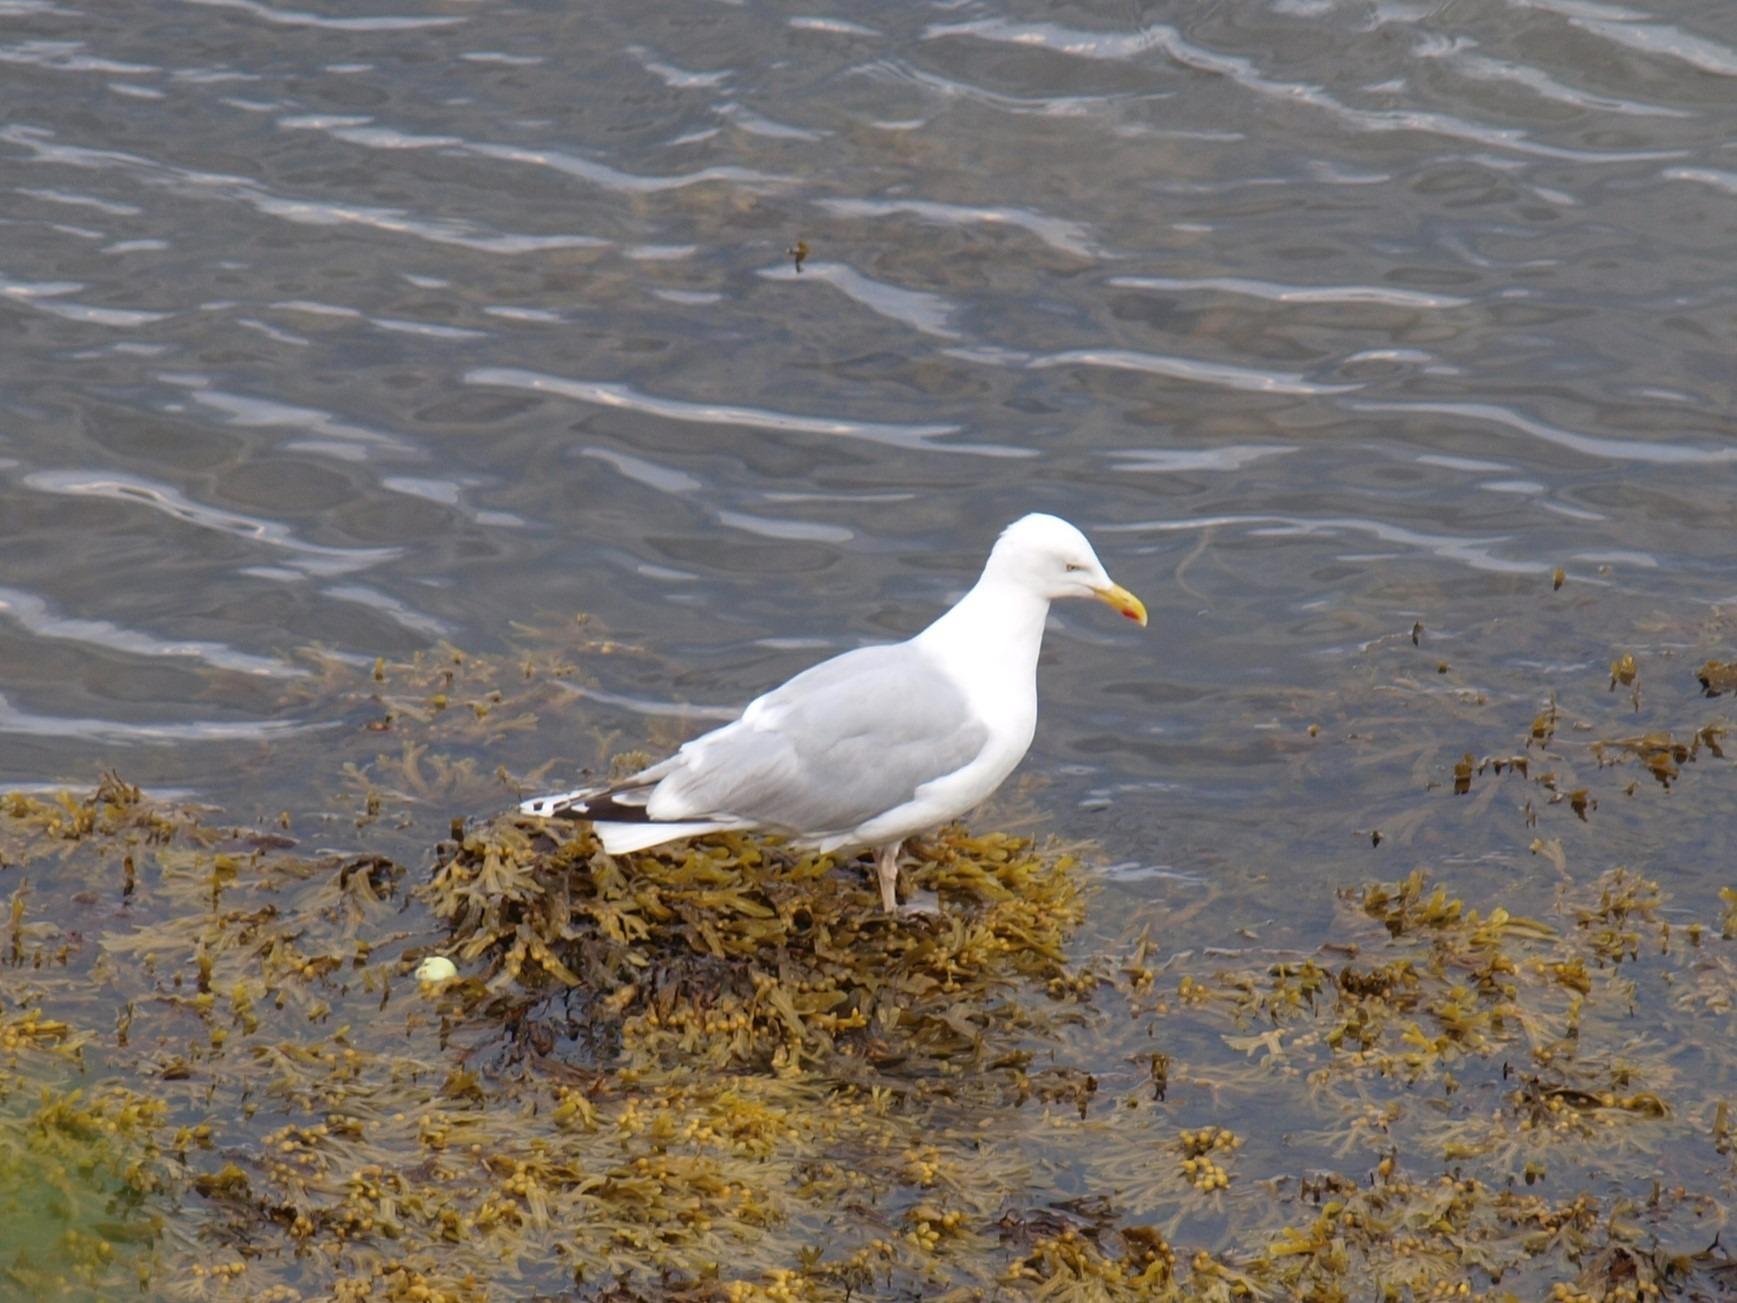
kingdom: Animalia
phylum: Chordata
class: Aves
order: Charadriiformes
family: Laridae
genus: Larus
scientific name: Larus argentatus
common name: Sølvmåge
